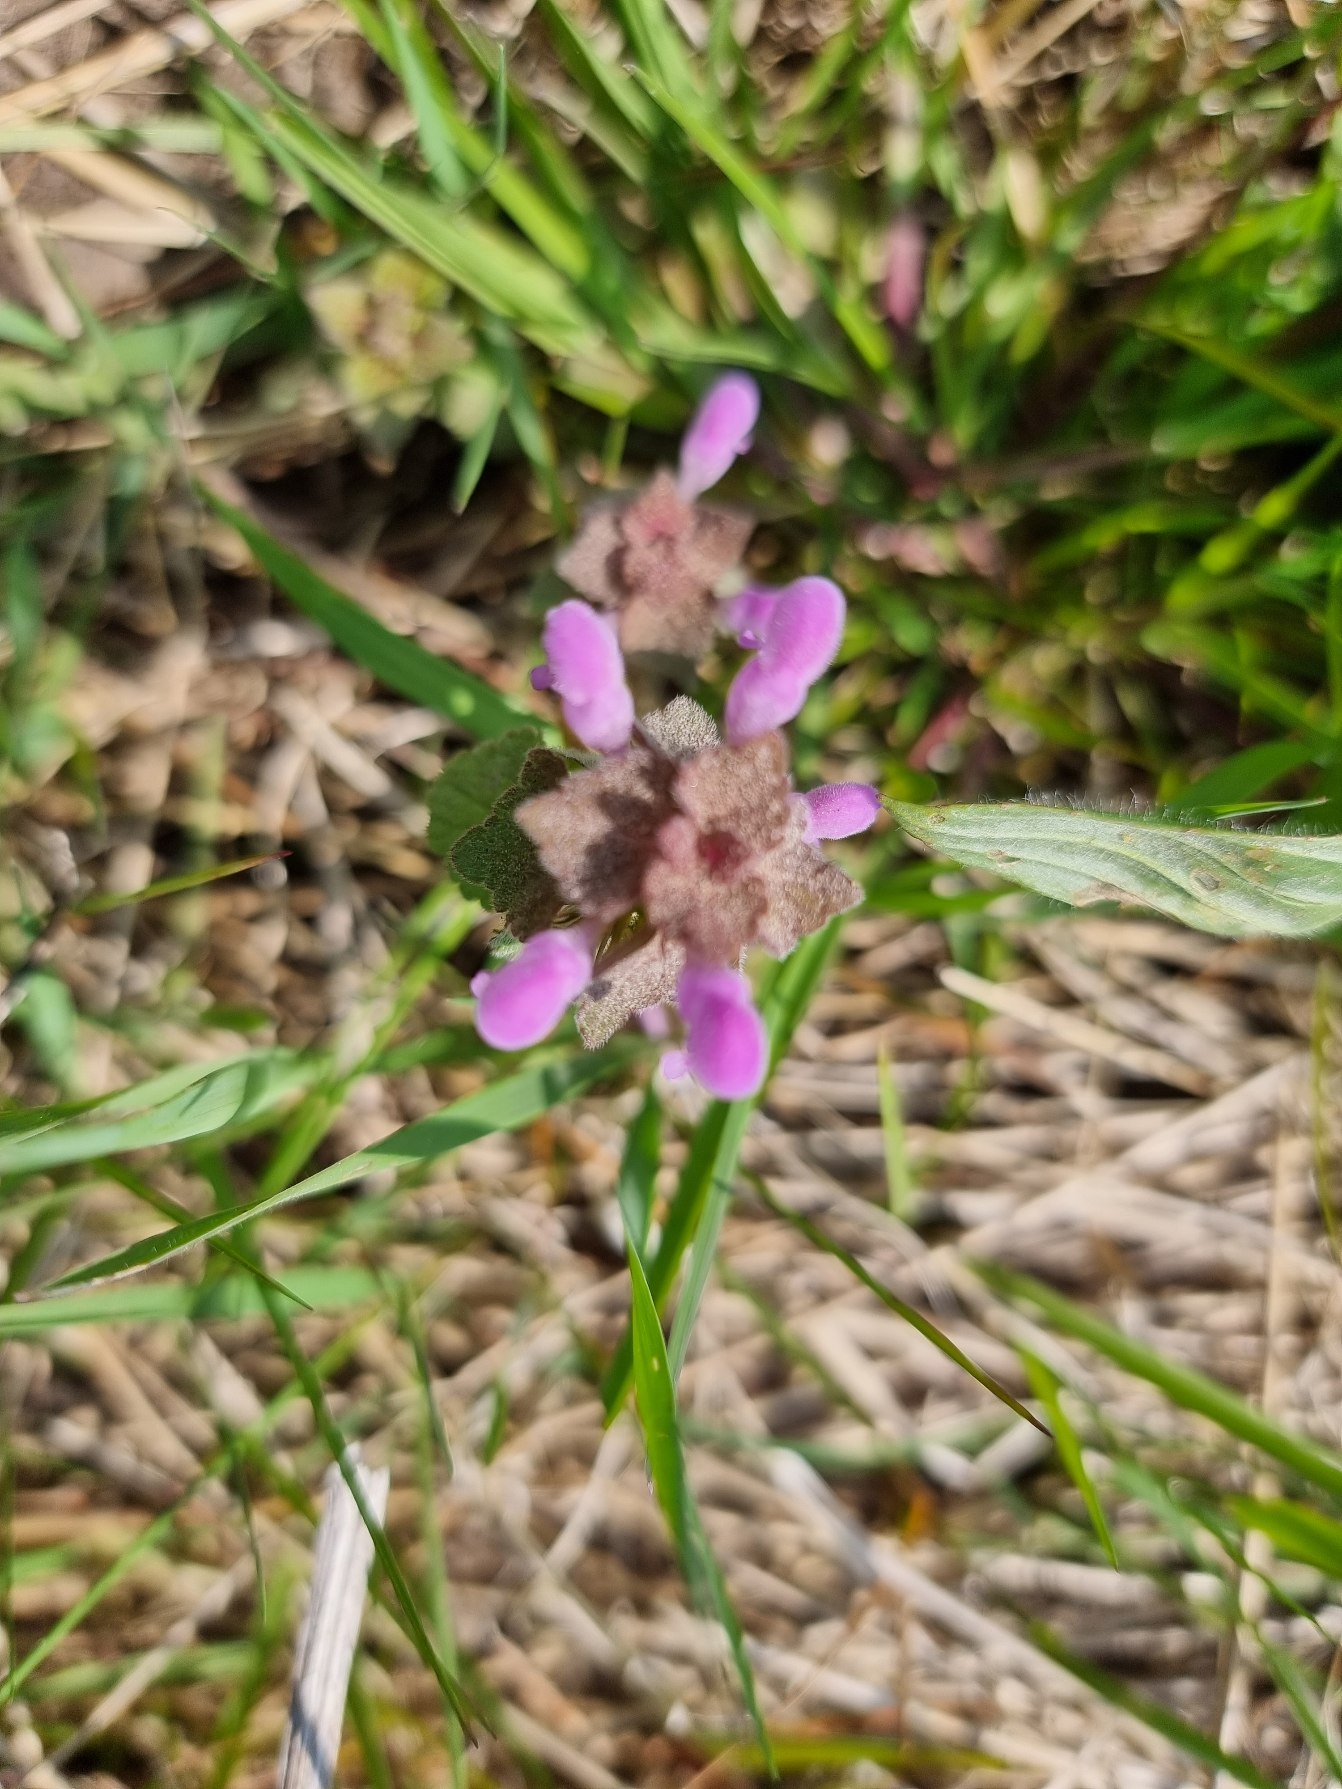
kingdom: Plantae
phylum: Tracheophyta
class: Magnoliopsida
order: Lamiales
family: Lamiaceae
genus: Lamium
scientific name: Lamium purpureum
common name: Rød tvetand
